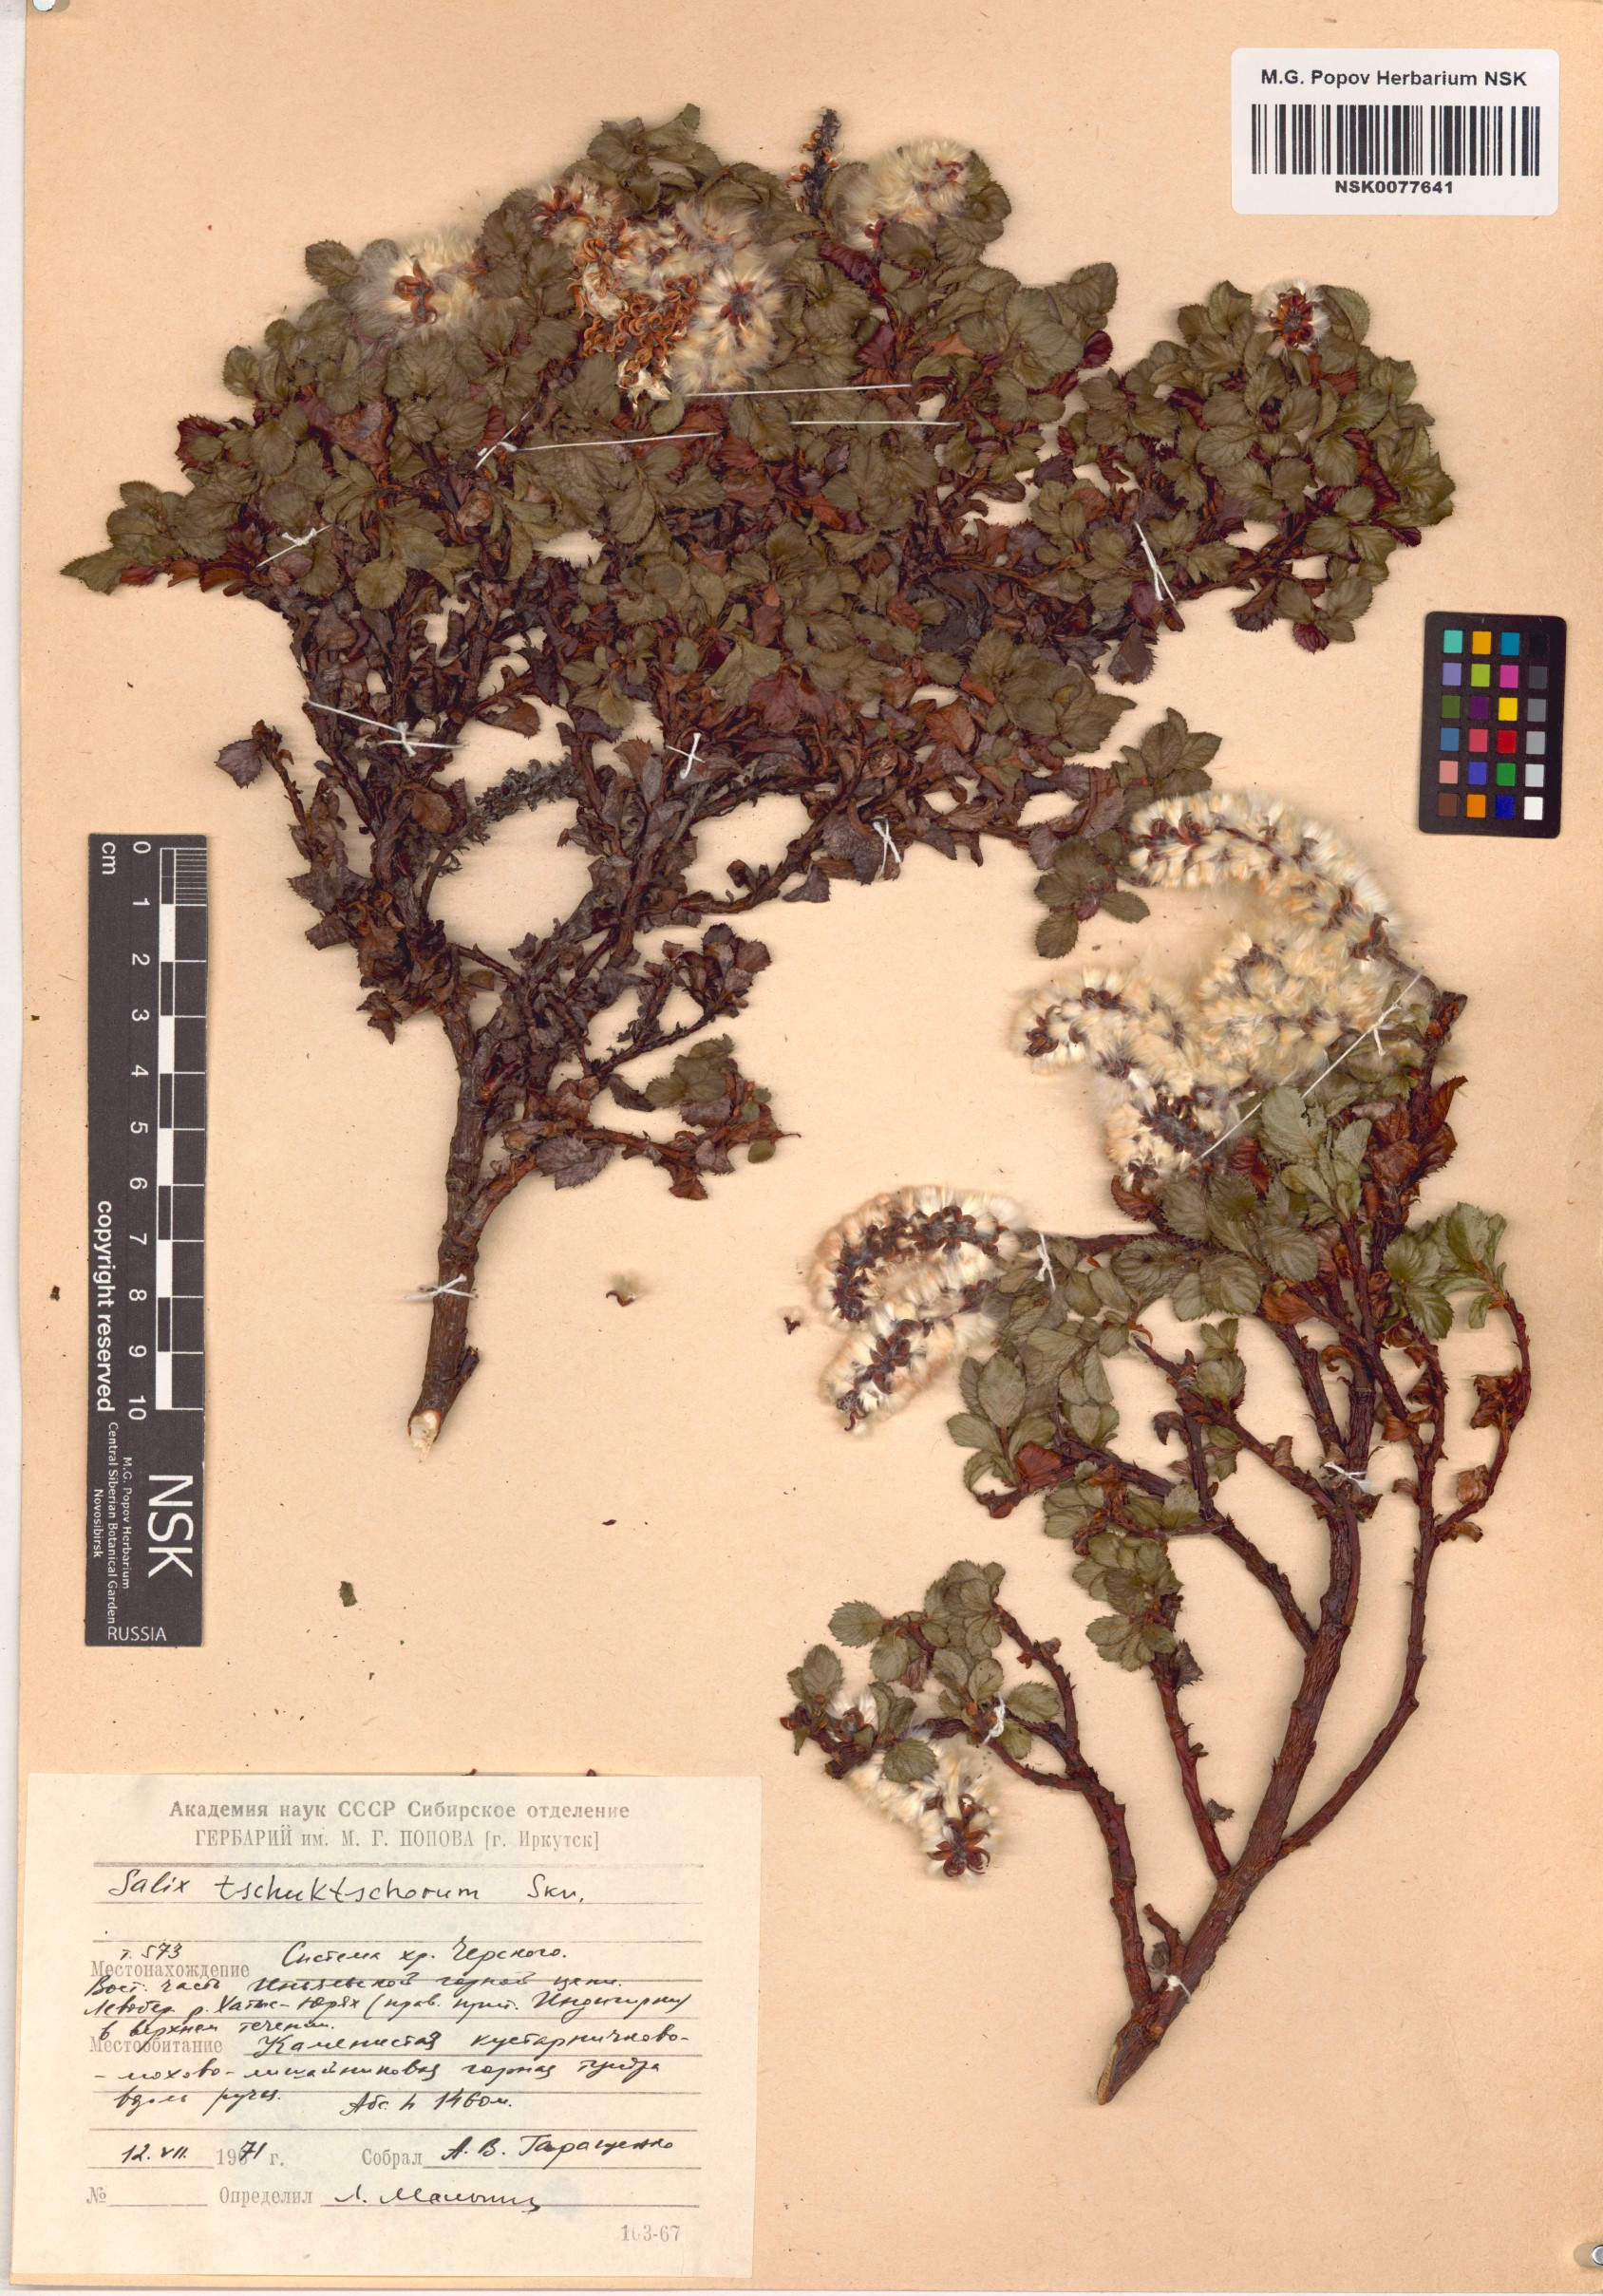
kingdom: Plantae
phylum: Tracheophyta
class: Magnoliopsida
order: Malpighiales
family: Salicaceae
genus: Salix
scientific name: Salix tschuktschorum
